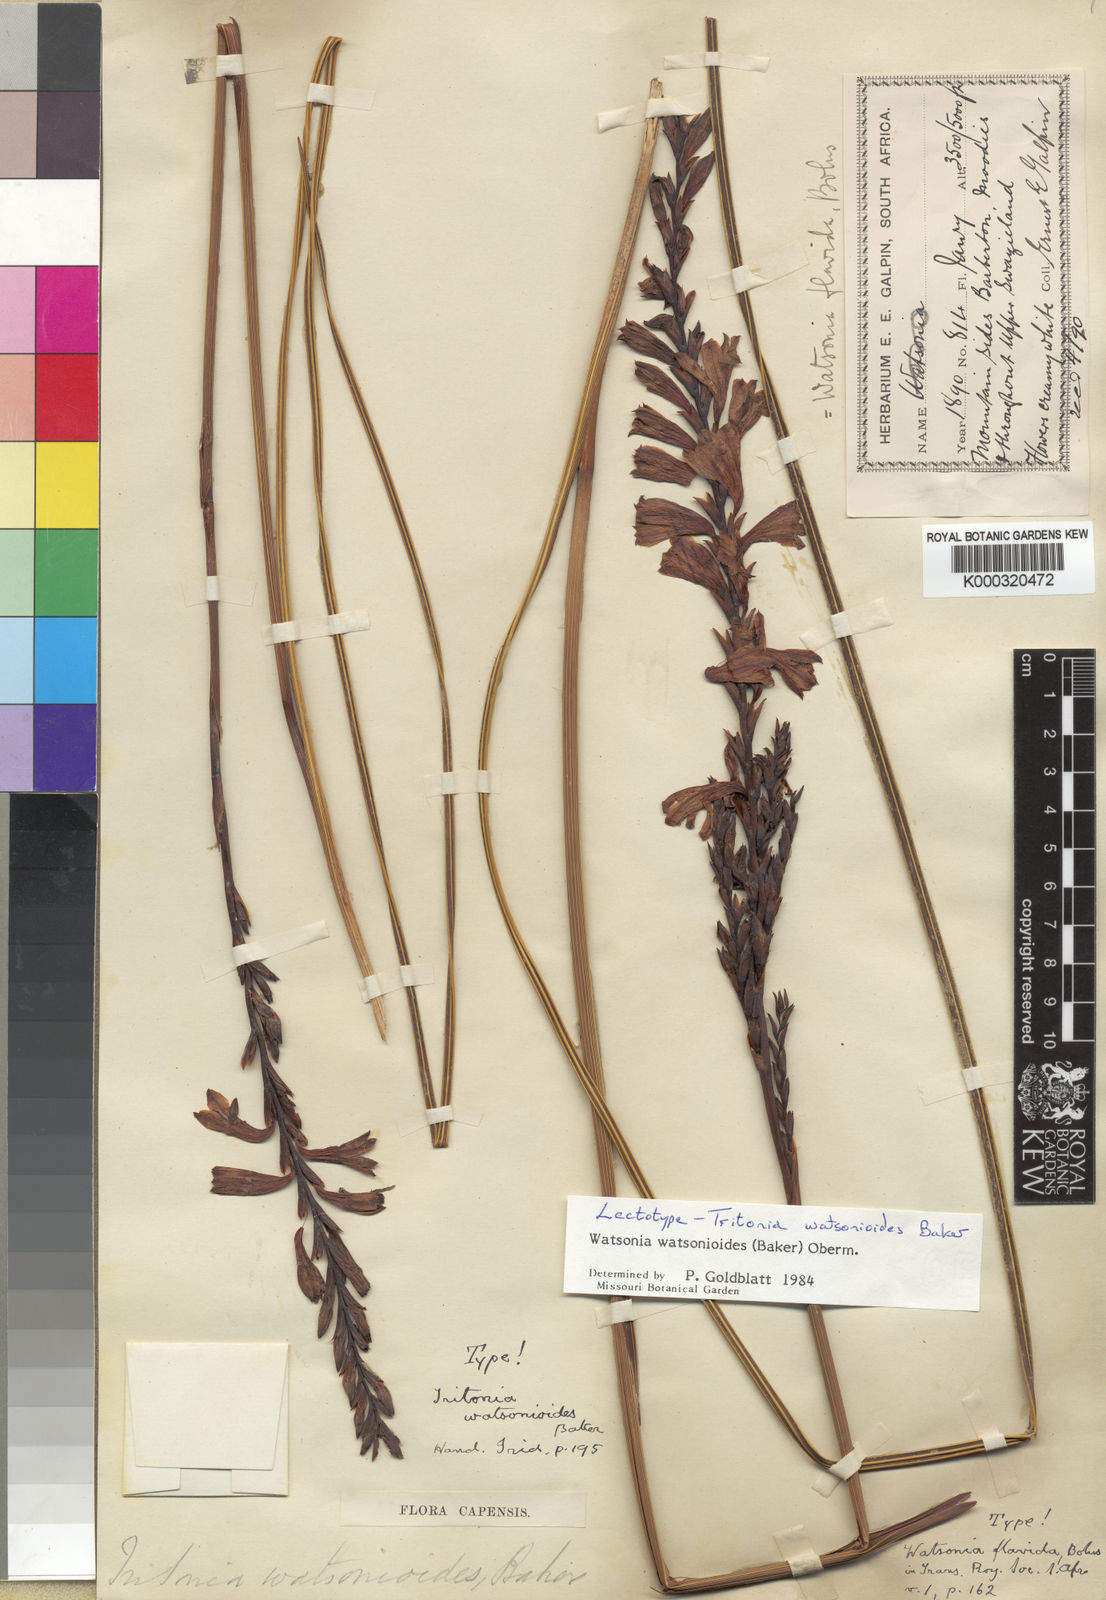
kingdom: Plantae
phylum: Tracheophyta
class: Liliopsida
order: Asparagales
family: Iridaceae
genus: Watsonia
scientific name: Watsonia watsonioides
